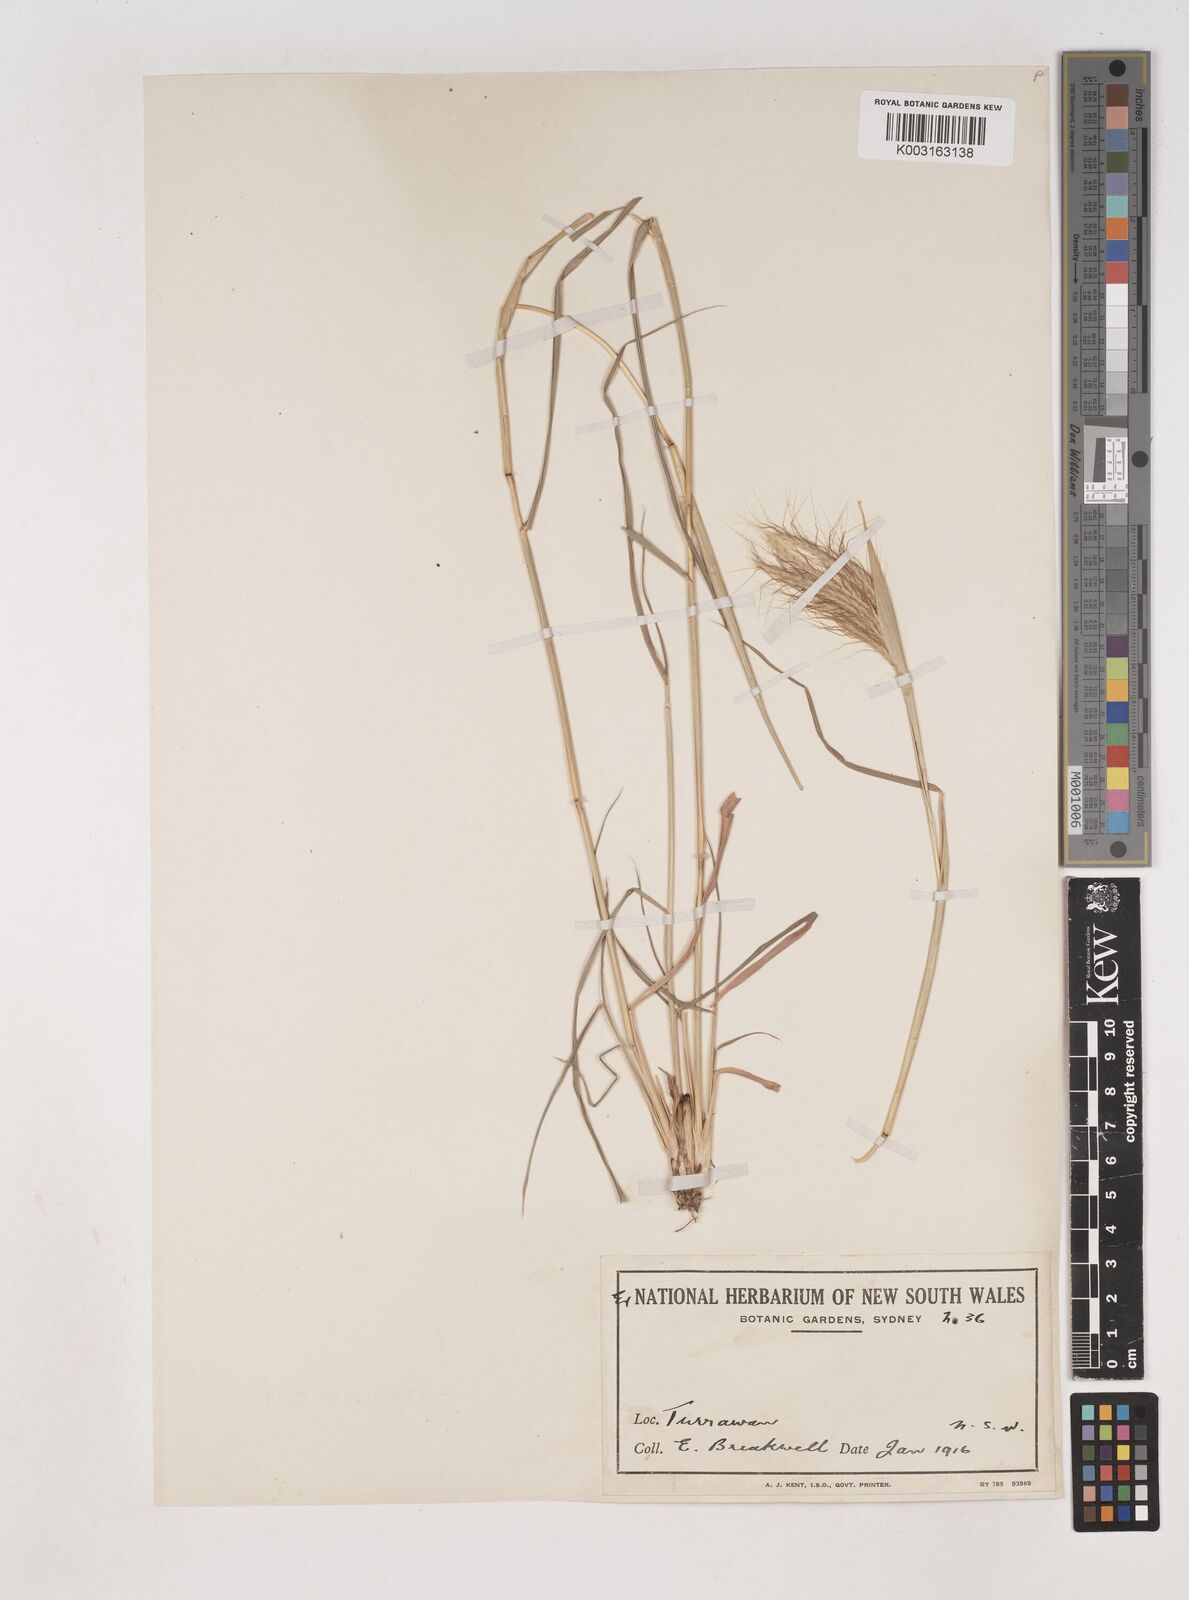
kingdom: Plantae
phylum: Tracheophyta
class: Liliopsida
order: Poales
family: Poaceae
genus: Dichanthium
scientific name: Dichanthium sericeum
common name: Silky bluestem
